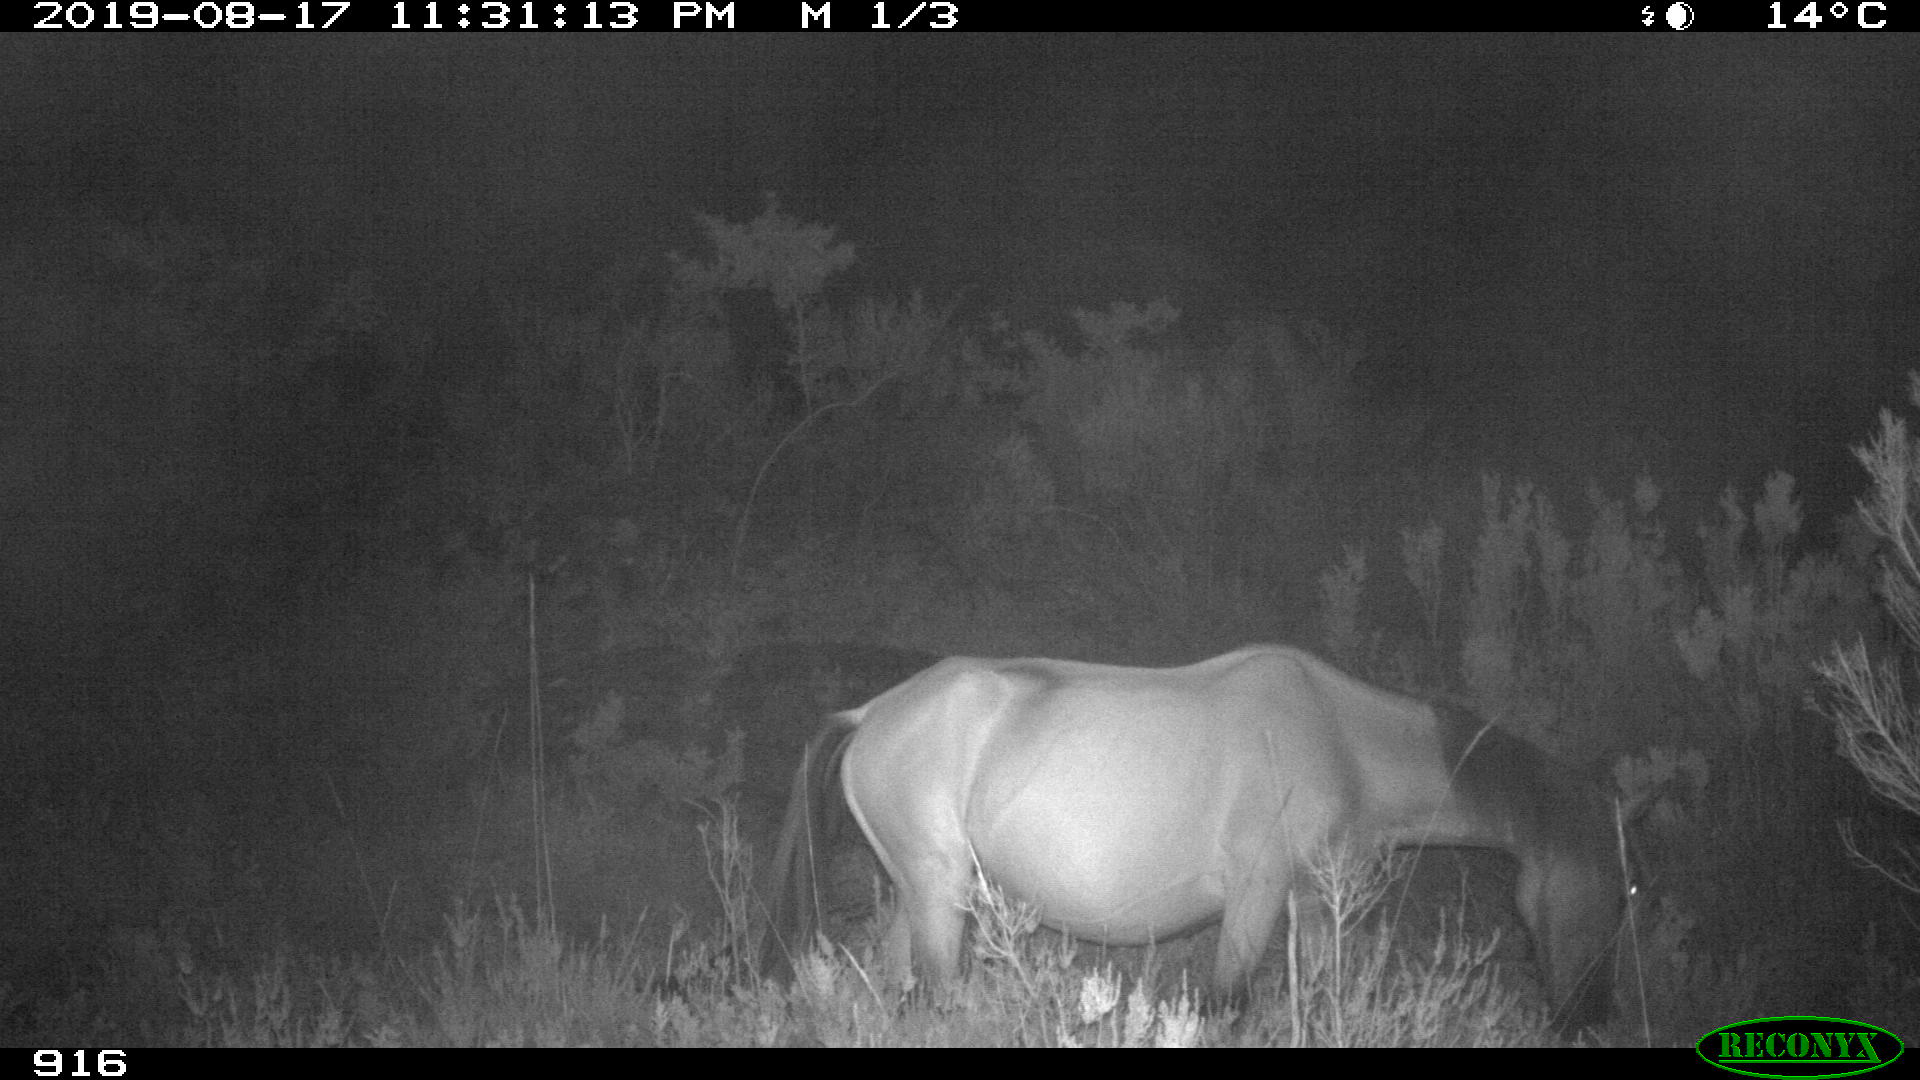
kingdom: Animalia
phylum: Chordata
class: Mammalia
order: Perissodactyla
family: Equidae
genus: Equus
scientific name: Equus caballus
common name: Horse
